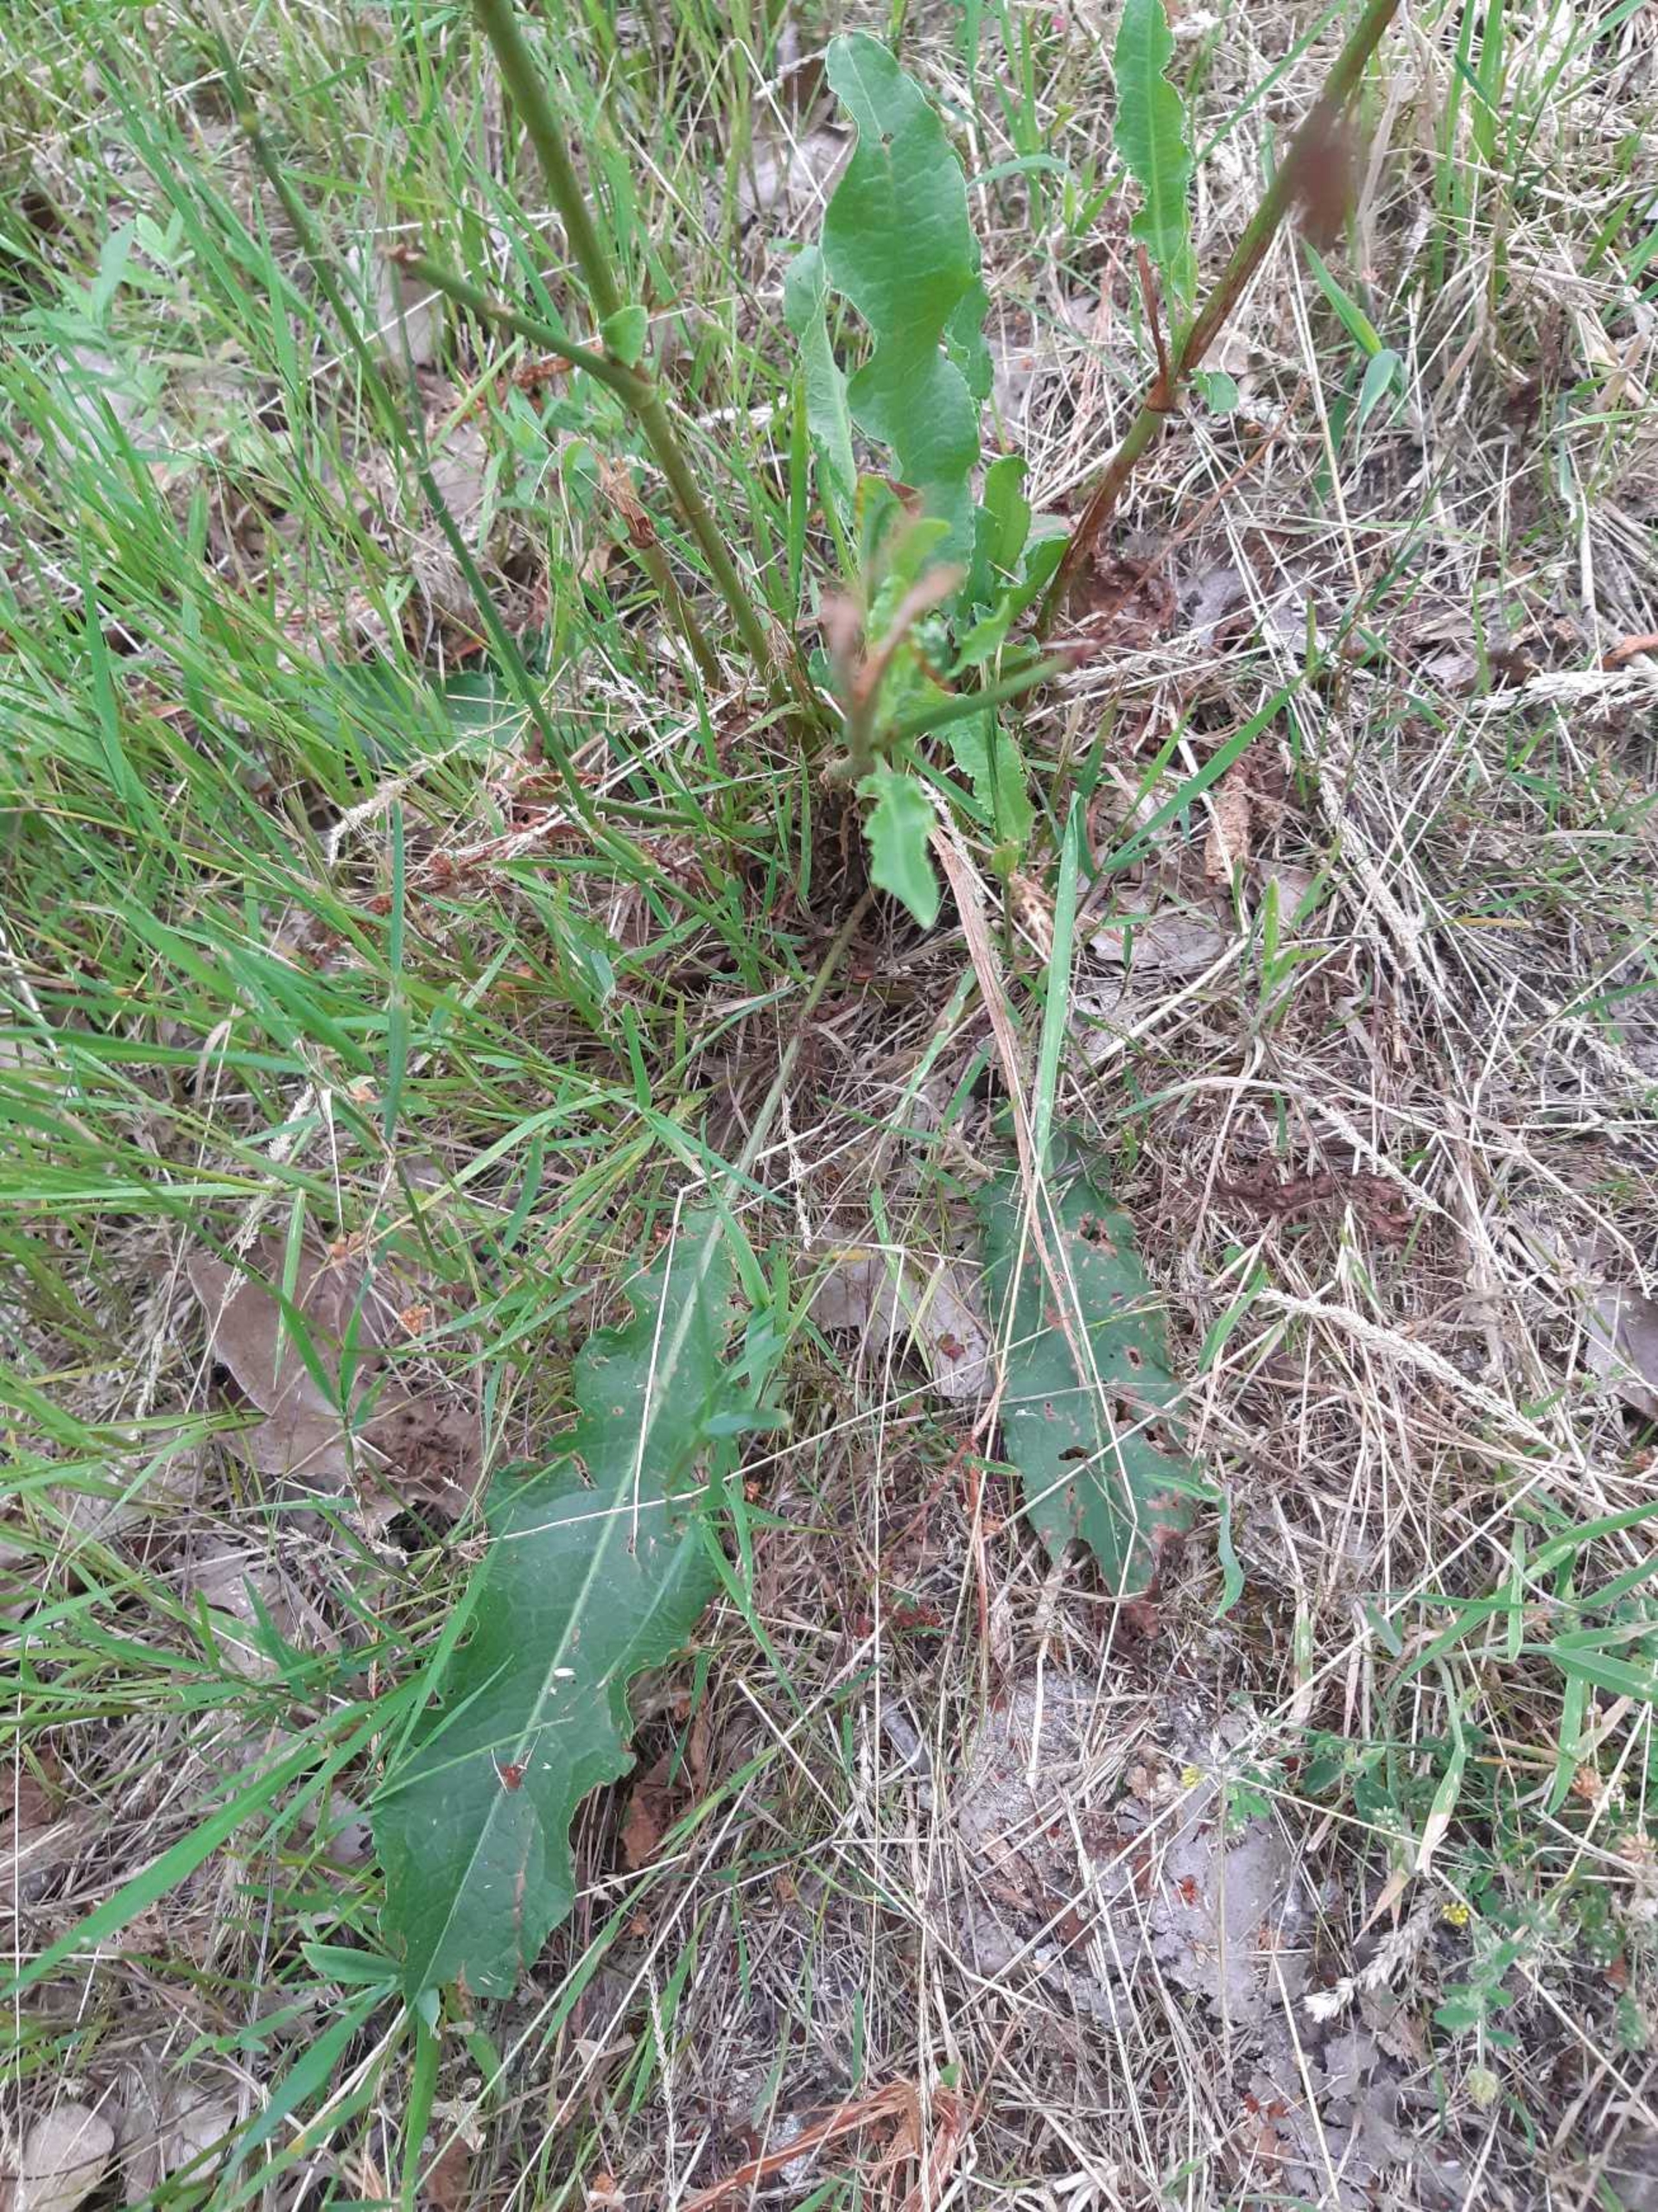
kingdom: Plantae
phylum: Tracheophyta
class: Magnoliopsida
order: Caryophyllales
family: Polygonaceae
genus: Rumex
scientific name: Rumex crispus
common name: Kruset skræppe
